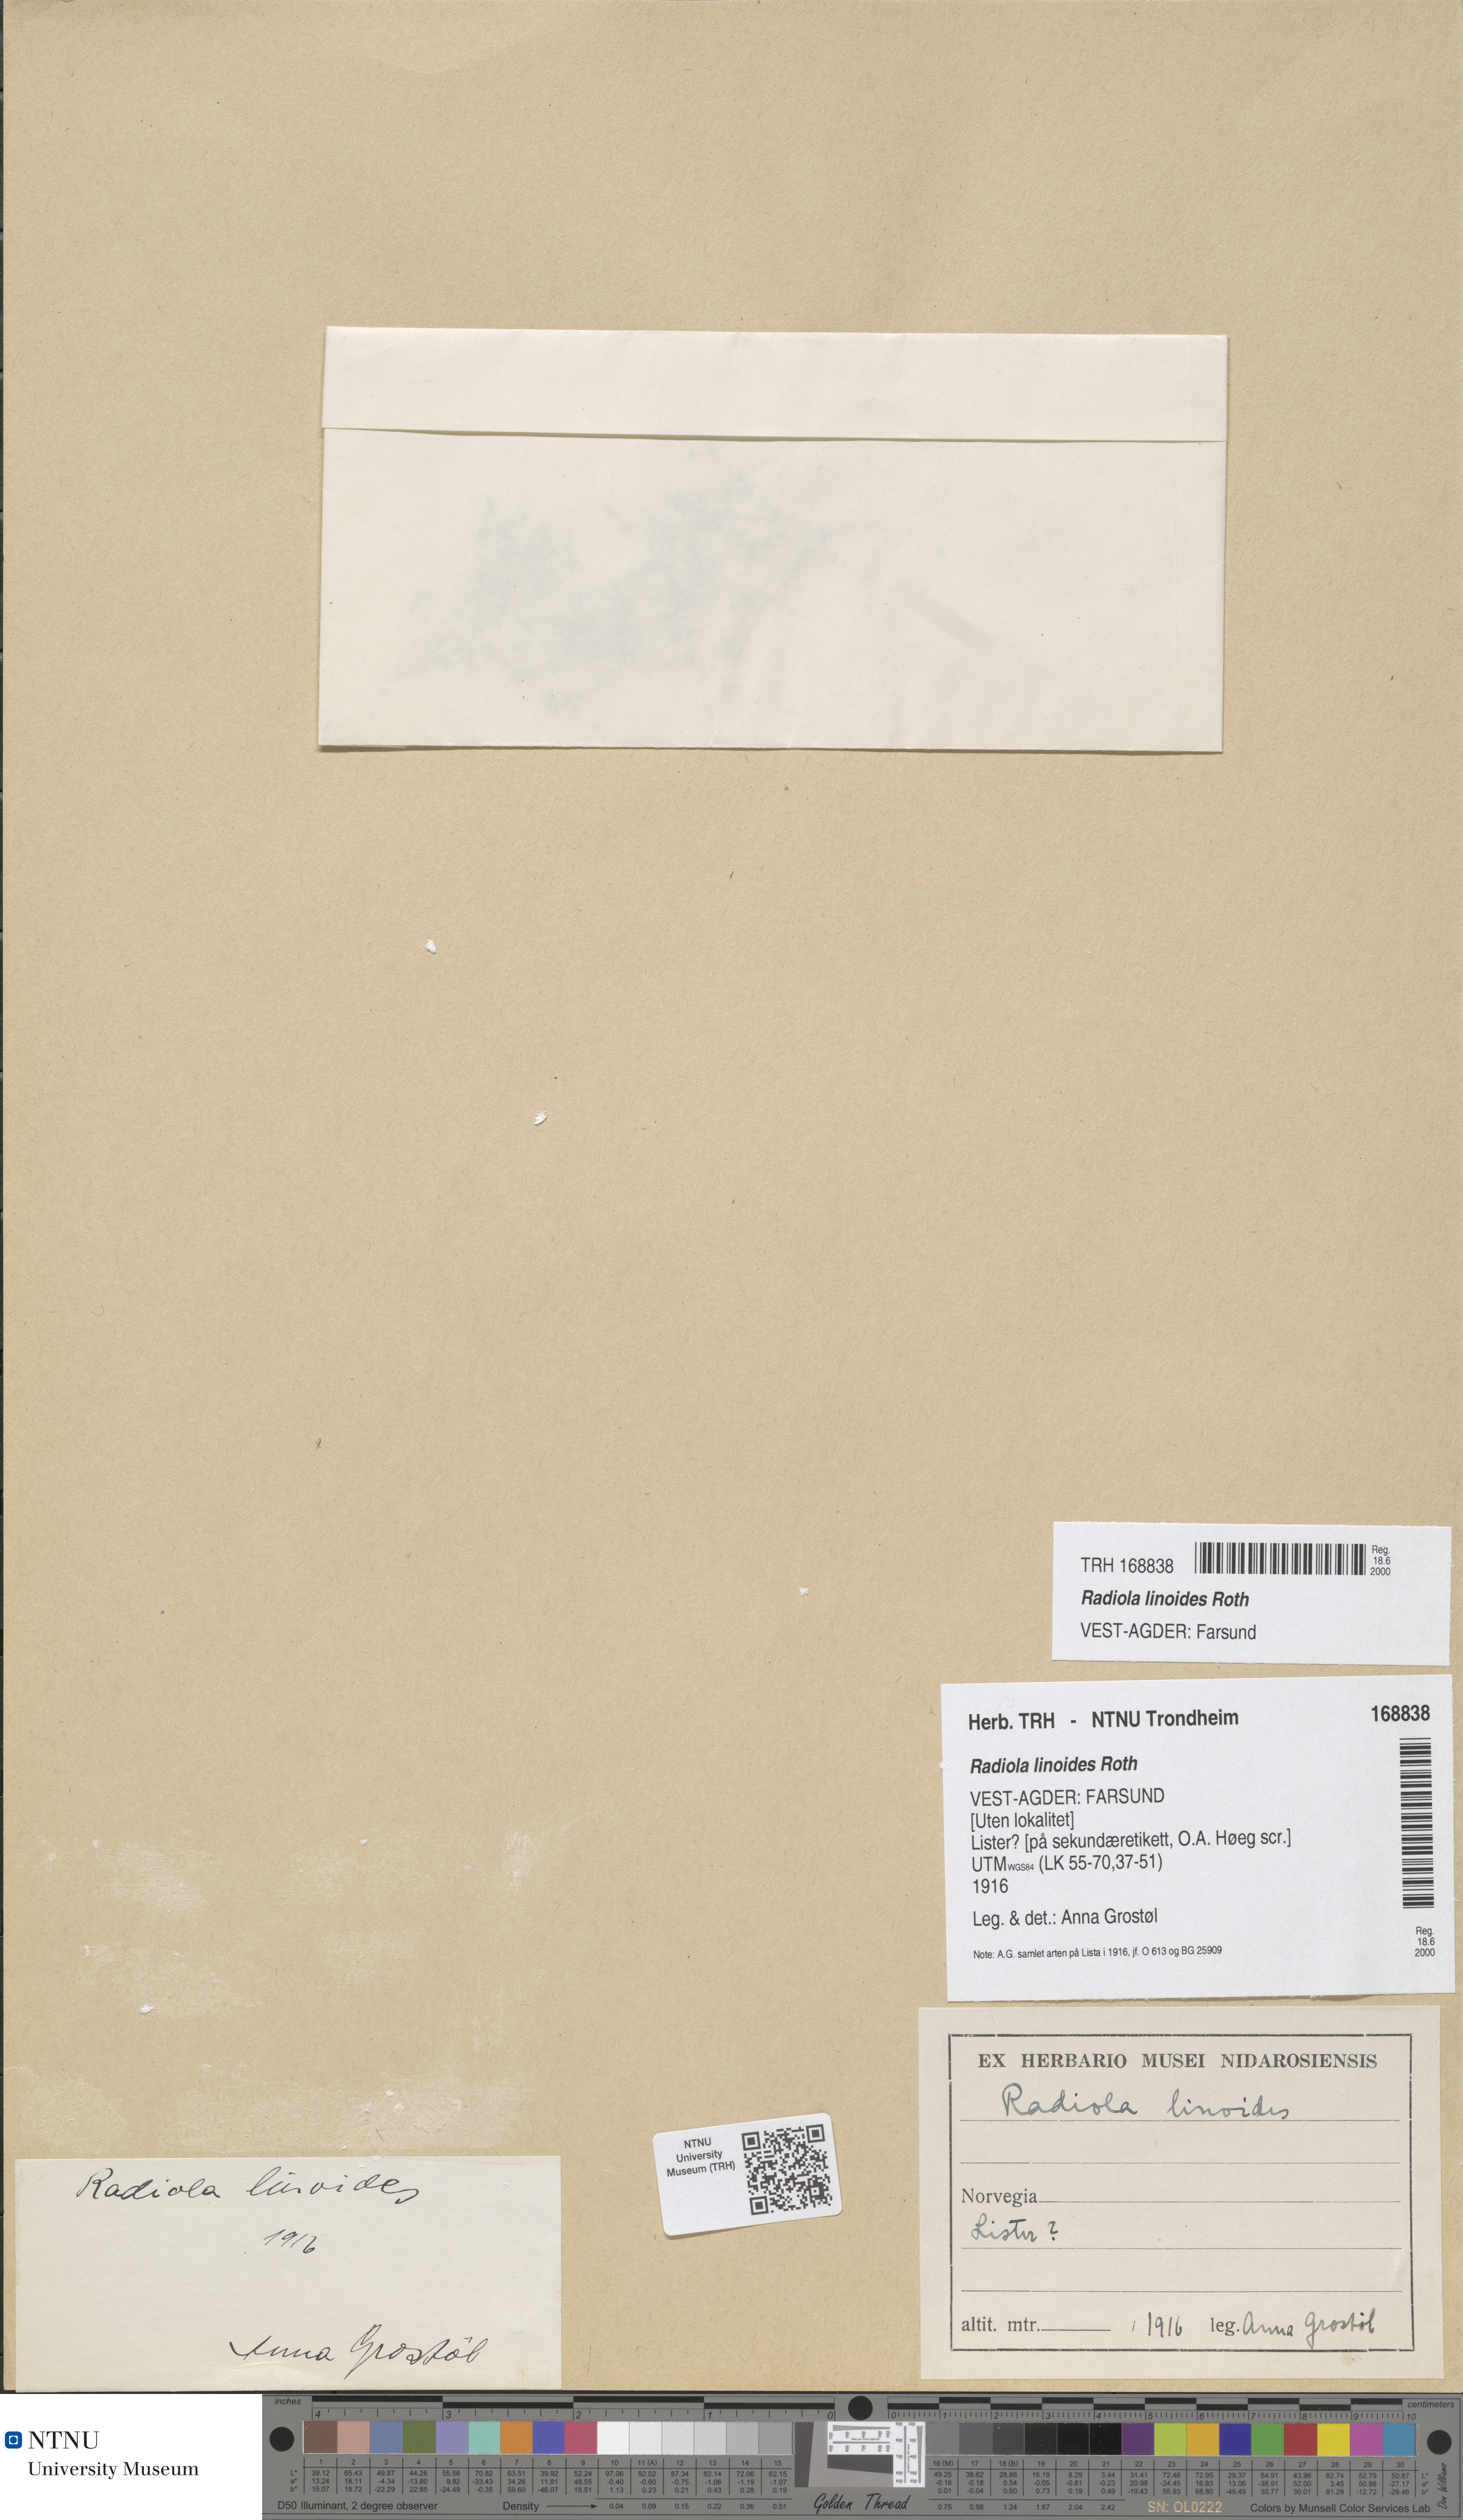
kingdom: Plantae
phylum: Tracheophyta
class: Magnoliopsida
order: Malpighiales
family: Linaceae
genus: Radiola
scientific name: Radiola linoides
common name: Allseed
